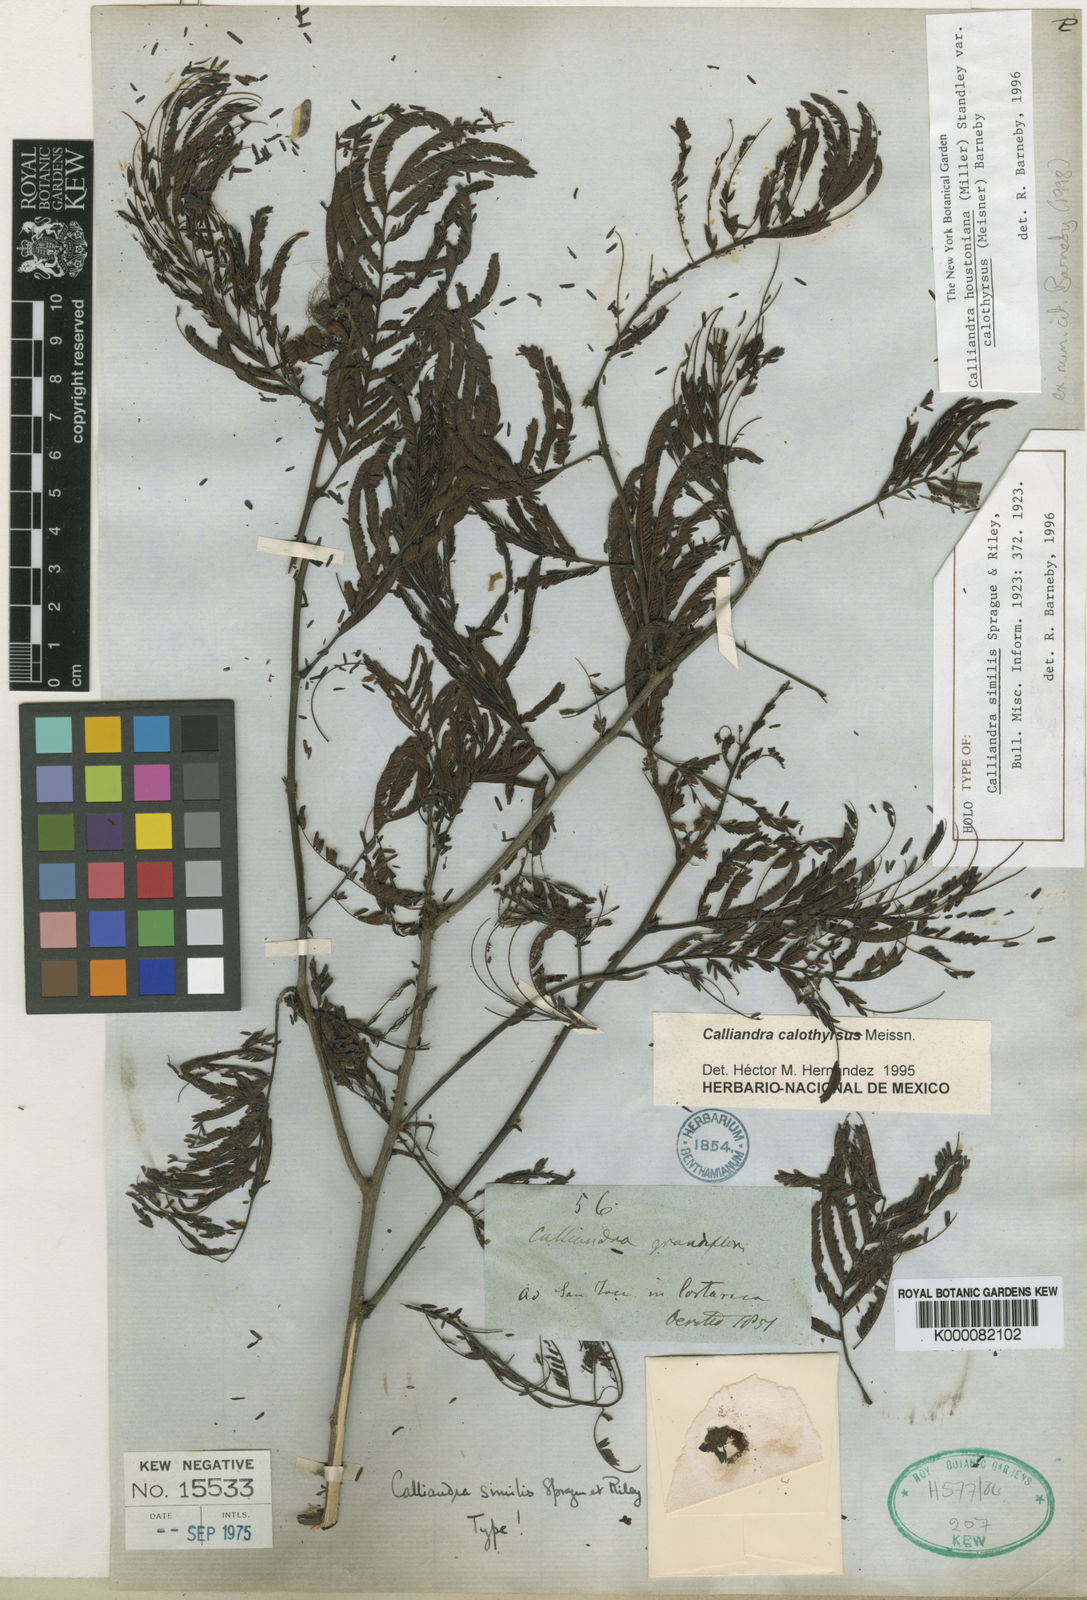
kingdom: Plantae
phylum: Tracheophyta
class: Magnoliopsida
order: Fabales
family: Fabaceae
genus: Calliandra
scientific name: Calliandra houstoniana
